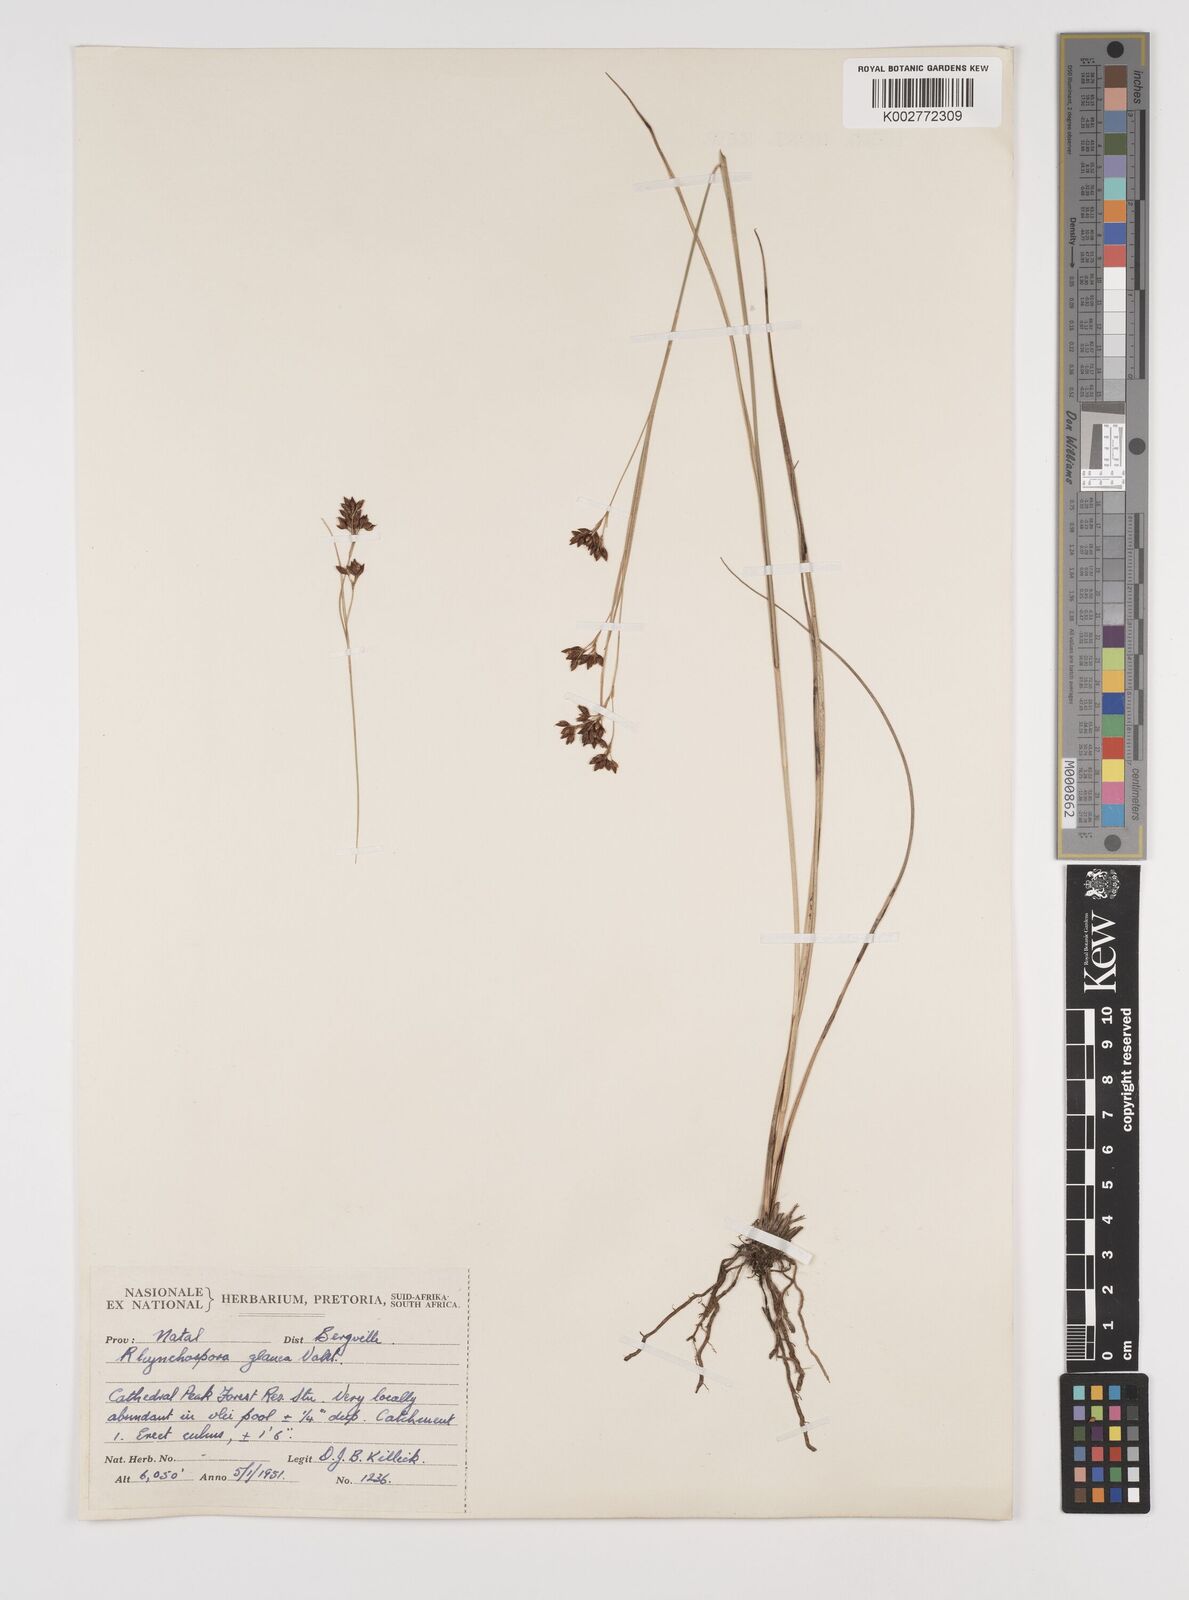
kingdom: Plantae
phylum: Tracheophyta
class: Liliopsida
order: Poales
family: Cyperaceae
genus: Rhynchospora
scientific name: Rhynchospora rugosa
